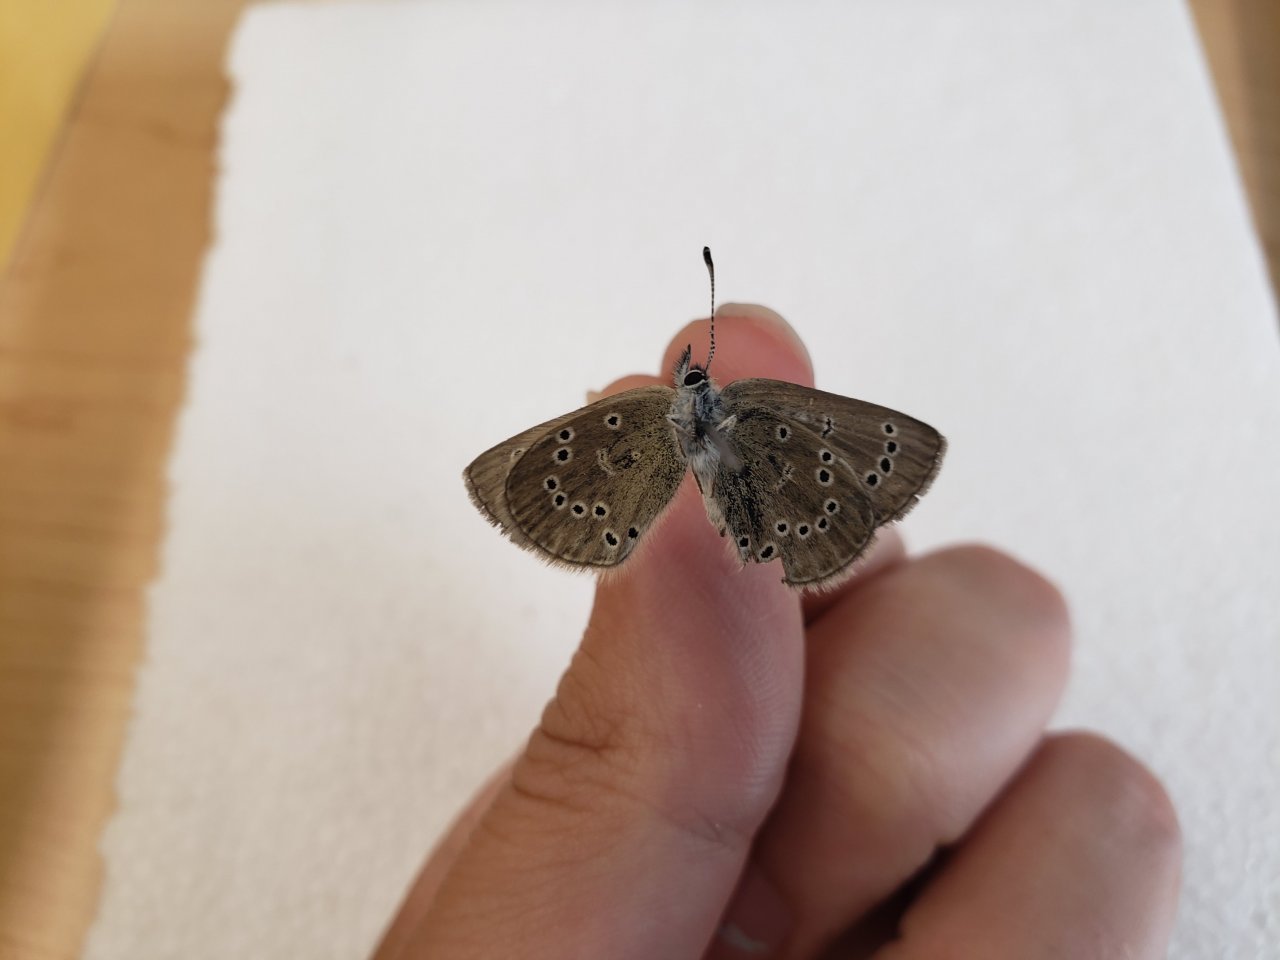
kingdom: Animalia
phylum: Arthropoda
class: Insecta
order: Lepidoptera
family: Lycaenidae
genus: Glaucopsyche
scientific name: Glaucopsyche lygdamus
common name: Silvery Blue
